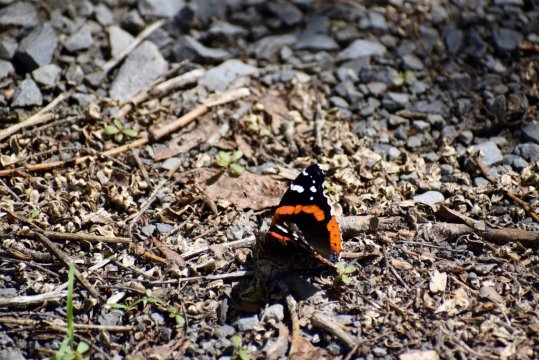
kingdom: Animalia
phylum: Arthropoda
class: Insecta
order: Lepidoptera
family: Nymphalidae
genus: Vanessa
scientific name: Vanessa atalanta
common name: Red Admiral
